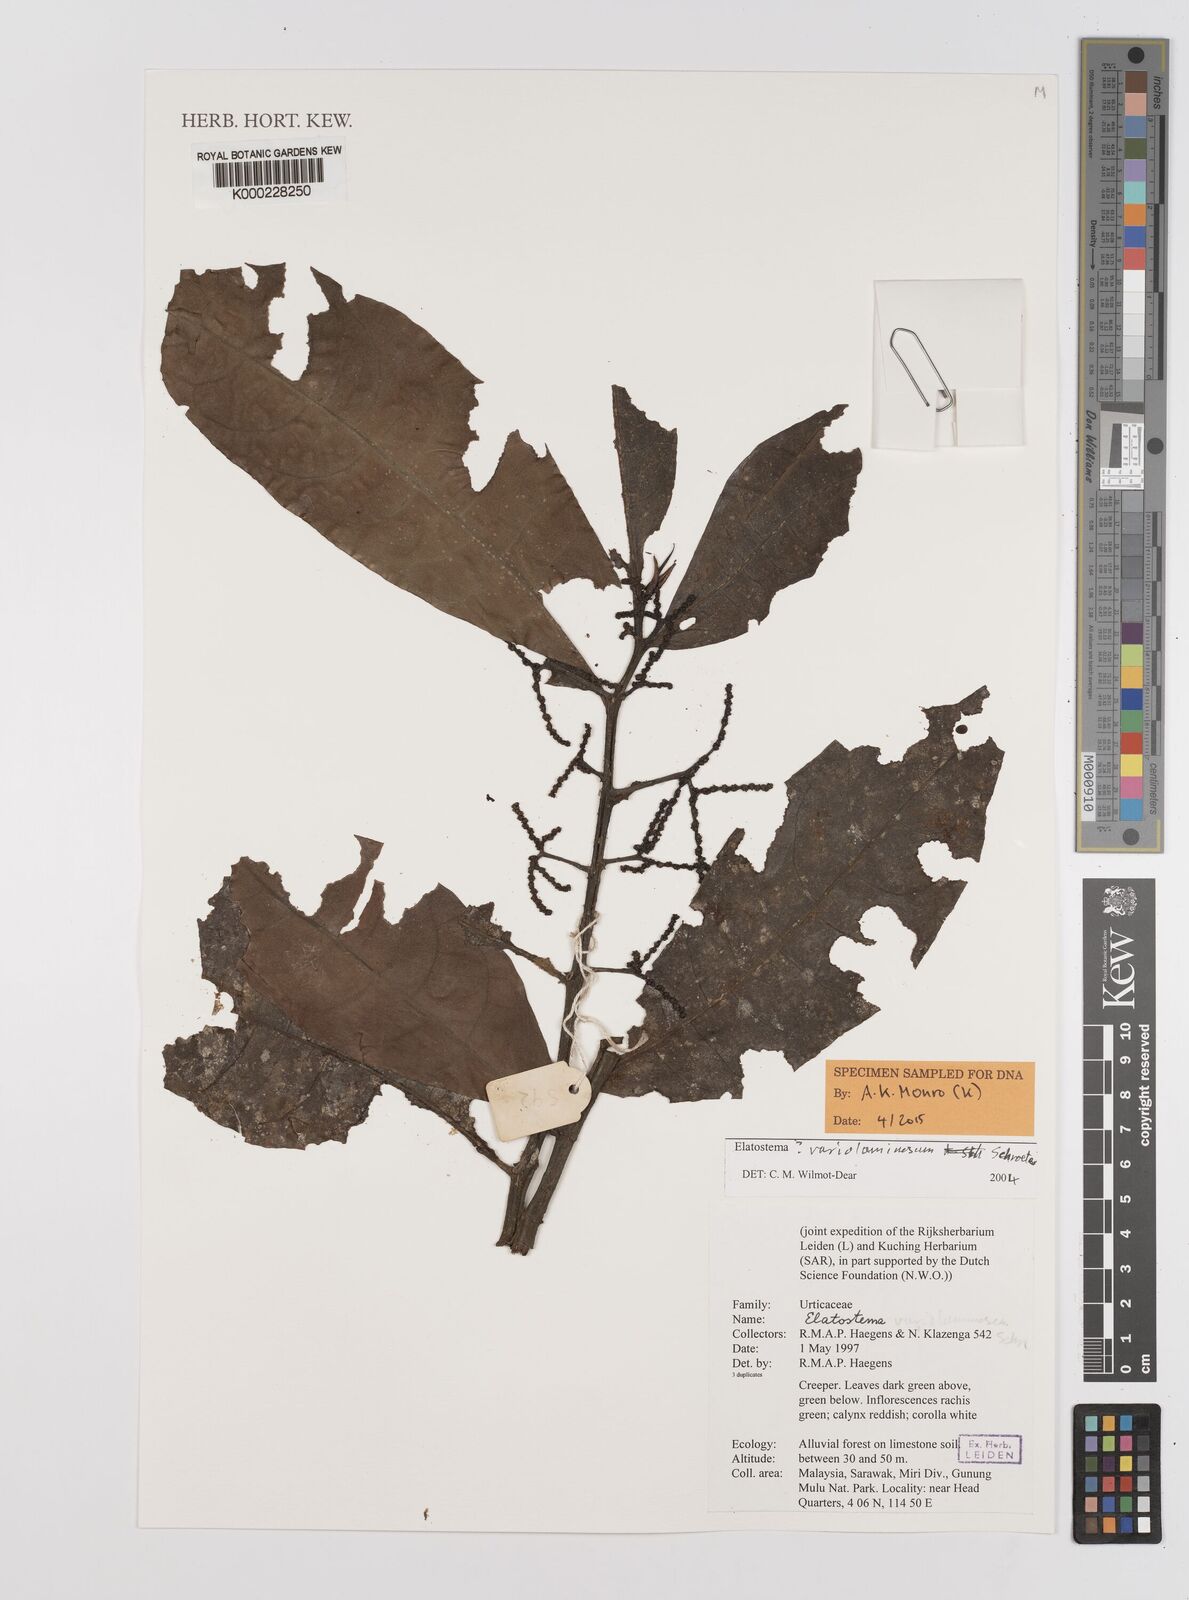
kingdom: Plantae
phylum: Tracheophyta
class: Magnoliopsida
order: Rosales
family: Urticaceae
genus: Elatostema
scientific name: Elatostema variolaminosum
